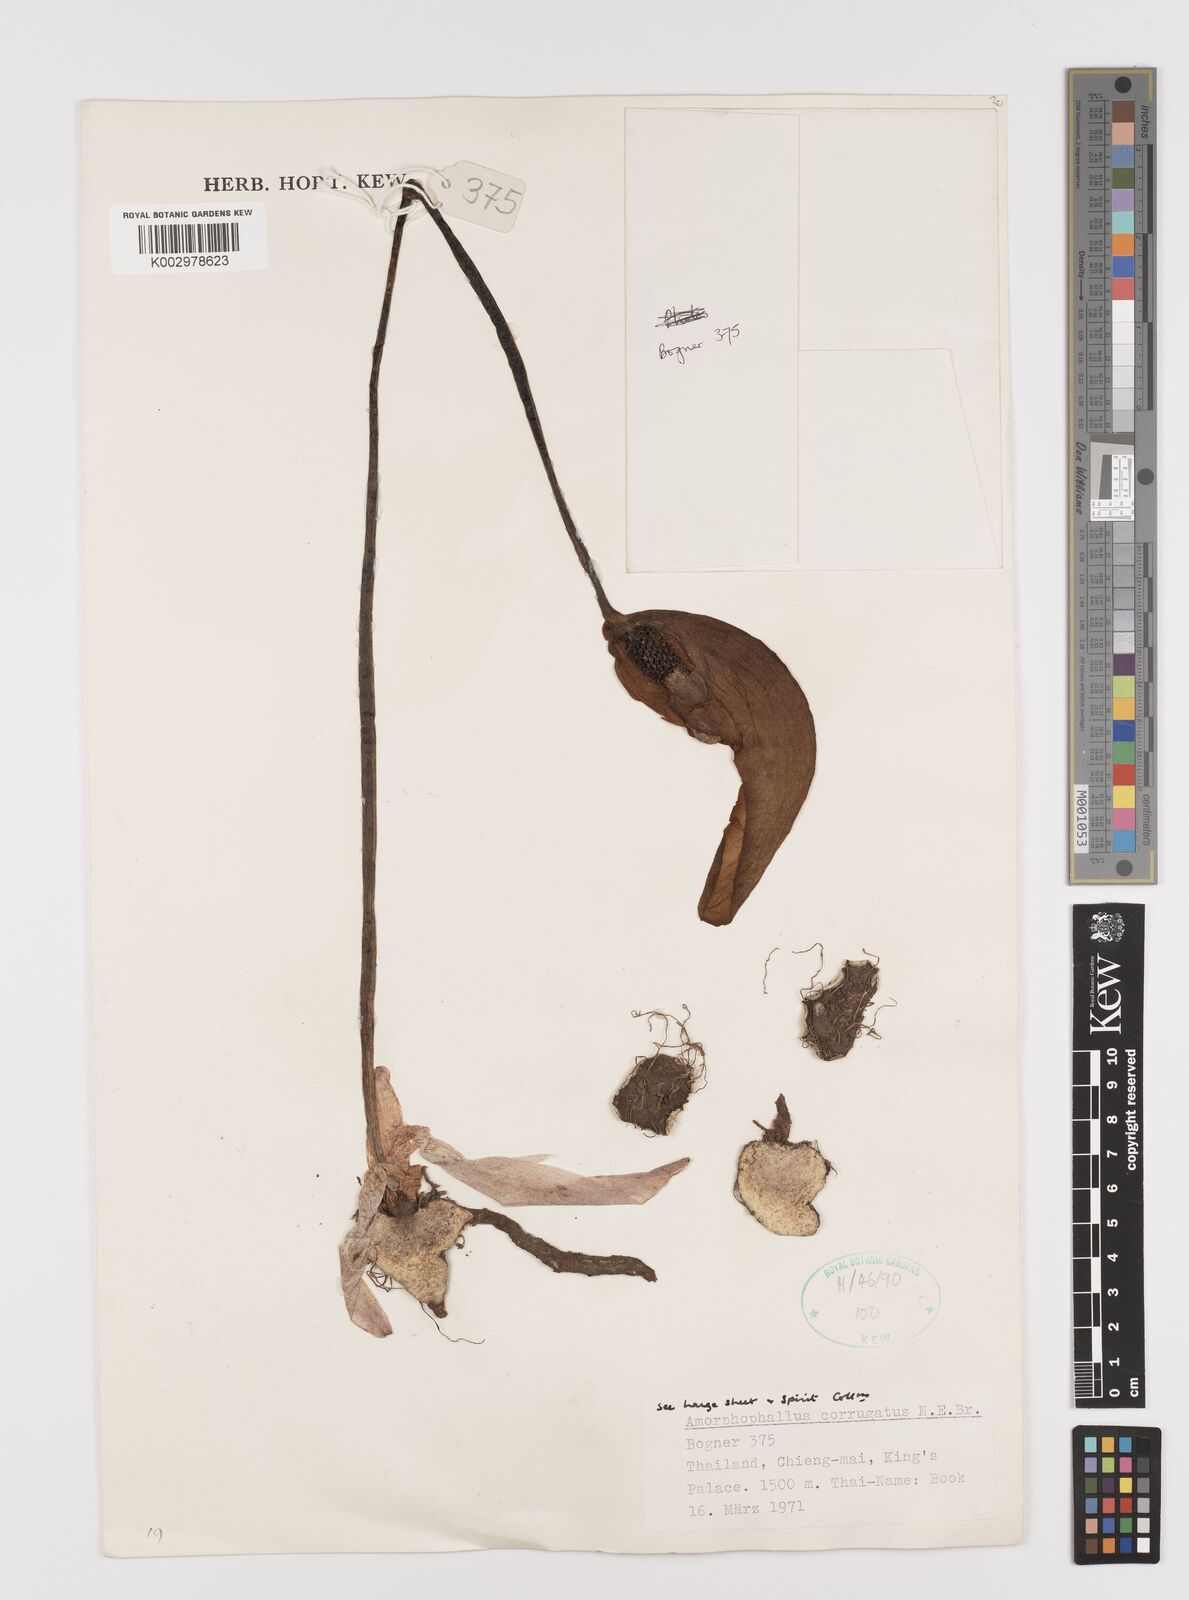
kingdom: Plantae
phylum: Tracheophyta
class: Liliopsida
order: Alismatales
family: Araceae
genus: Amorphophallus
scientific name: Amorphophallus corrugatus
